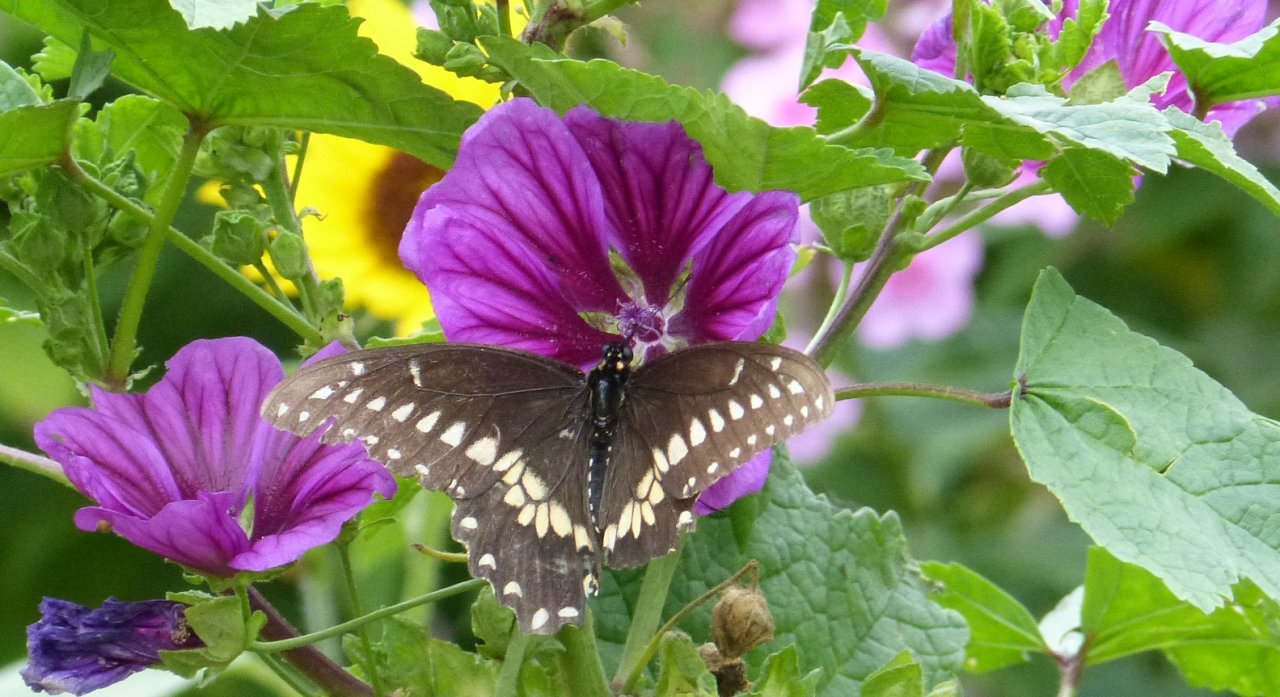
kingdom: Animalia
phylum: Arthropoda
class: Insecta
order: Lepidoptera
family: Papilionidae
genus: Papilio
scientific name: Papilio polyxenes
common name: Black Swallowtail
